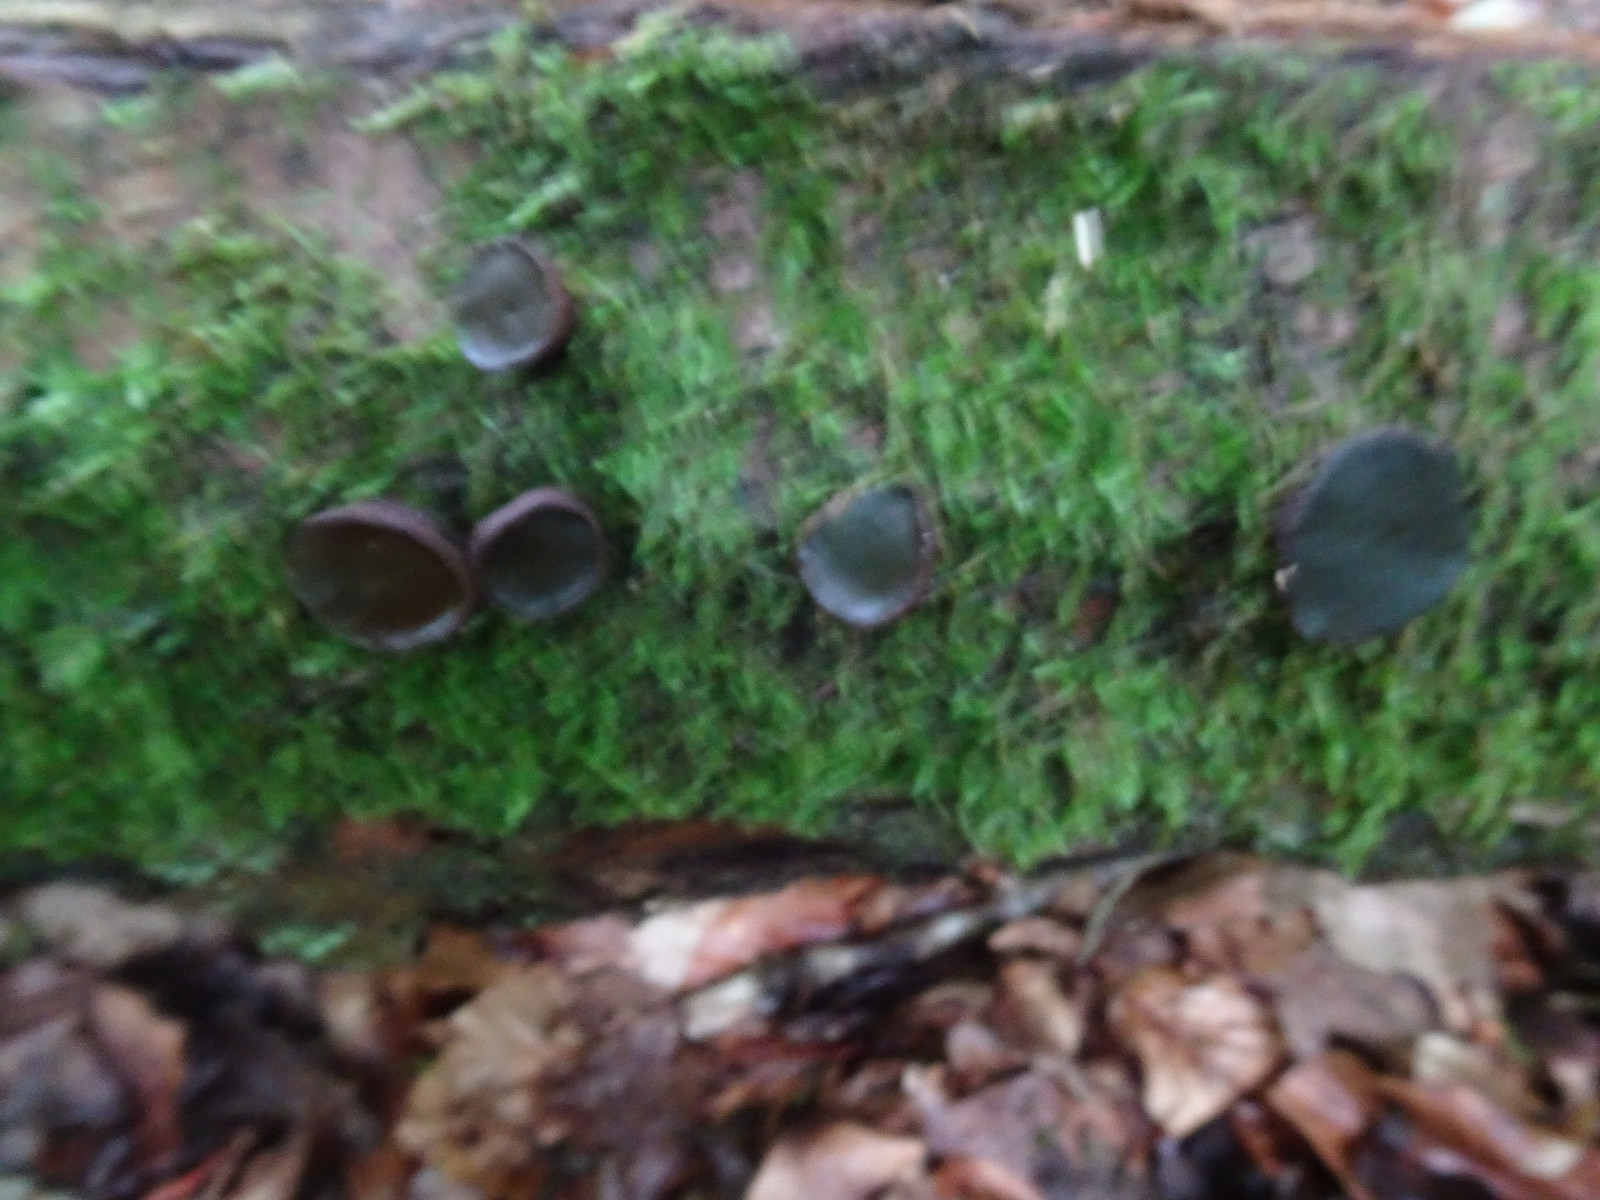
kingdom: Fungi
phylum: Ascomycota
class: Leotiomycetes
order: Phacidiales
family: Phacidiaceae
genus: Bulgaria
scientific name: Bulgaria inquinans
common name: afsmittende topsvamp
